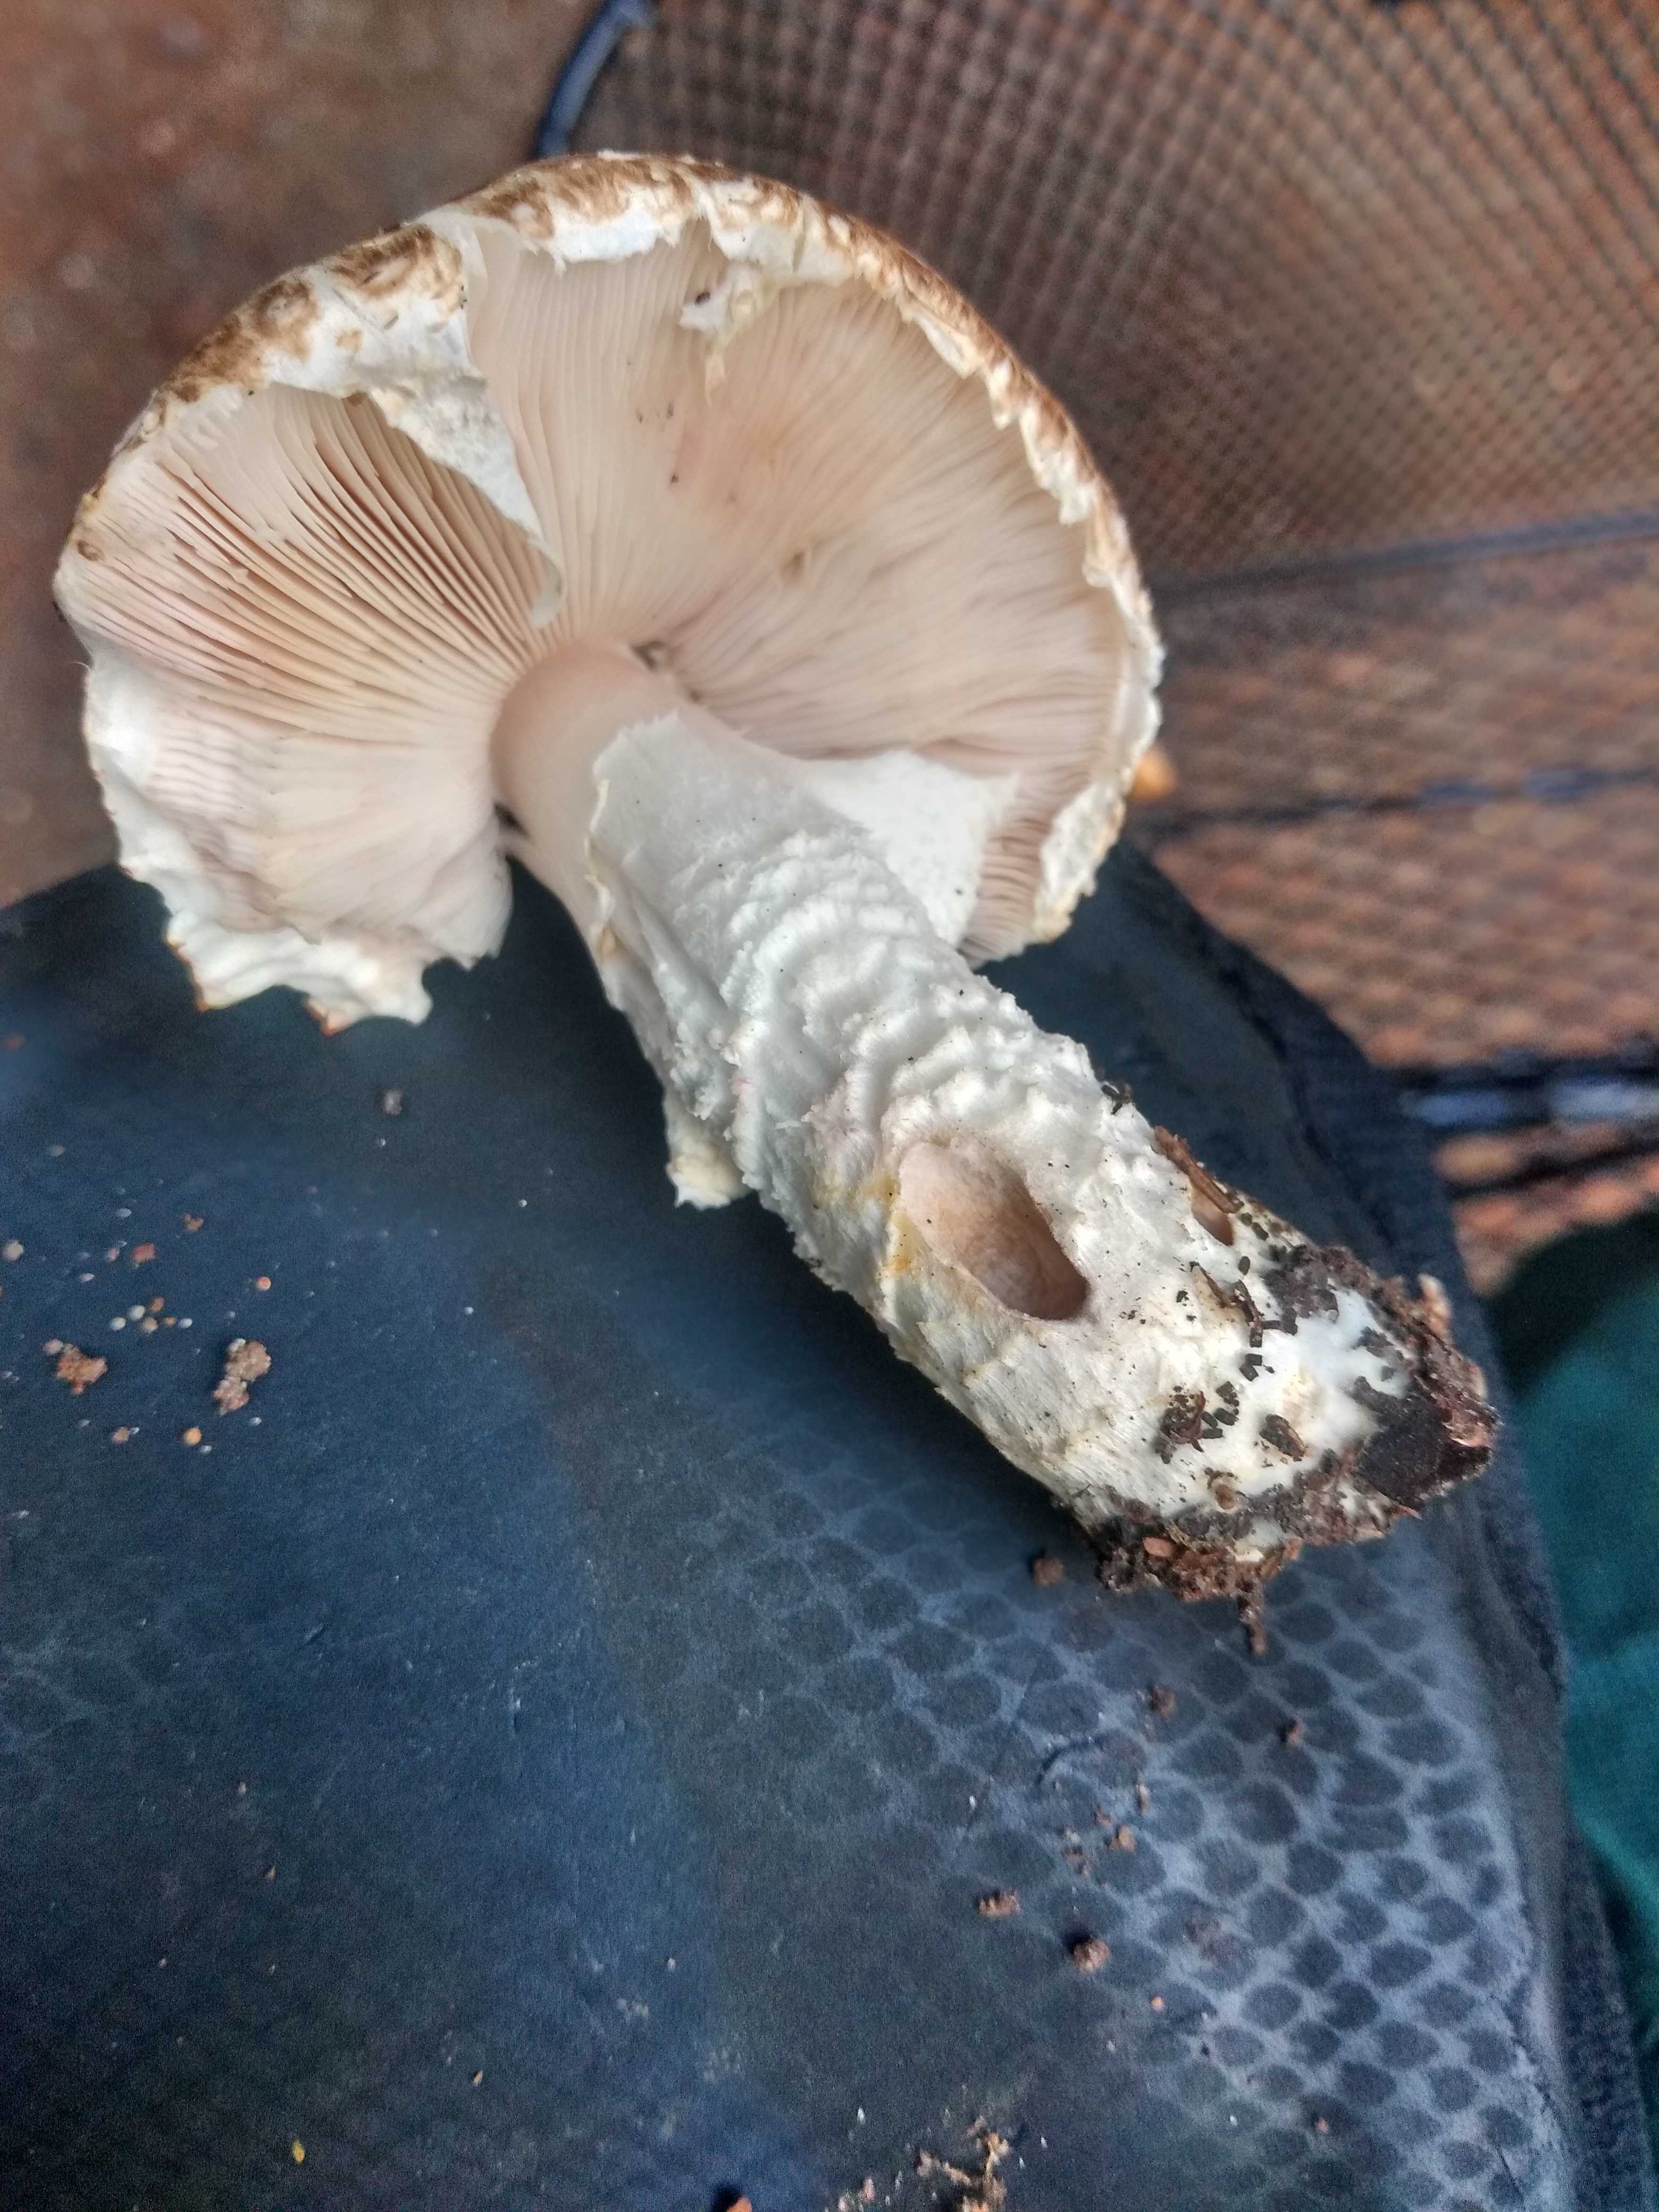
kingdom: Fungi
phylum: Basidiomycota
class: Agaricomycetes
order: Agaricales
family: Agaricaceae
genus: Agaricus
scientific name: Agaricus augustus
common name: prægtig champignon
